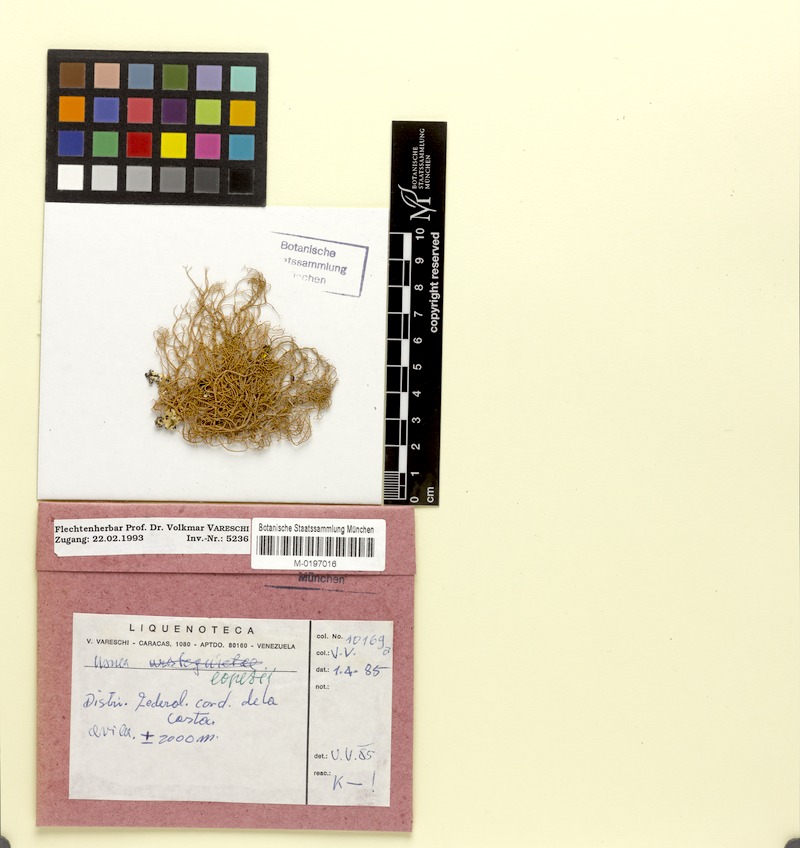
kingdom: Fungi
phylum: Ascomycota
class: Lecanoromycetes
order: Lecanorales
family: Parmeliaceae
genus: Usnea
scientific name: Usnea rubicunda
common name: Red beard lichen
